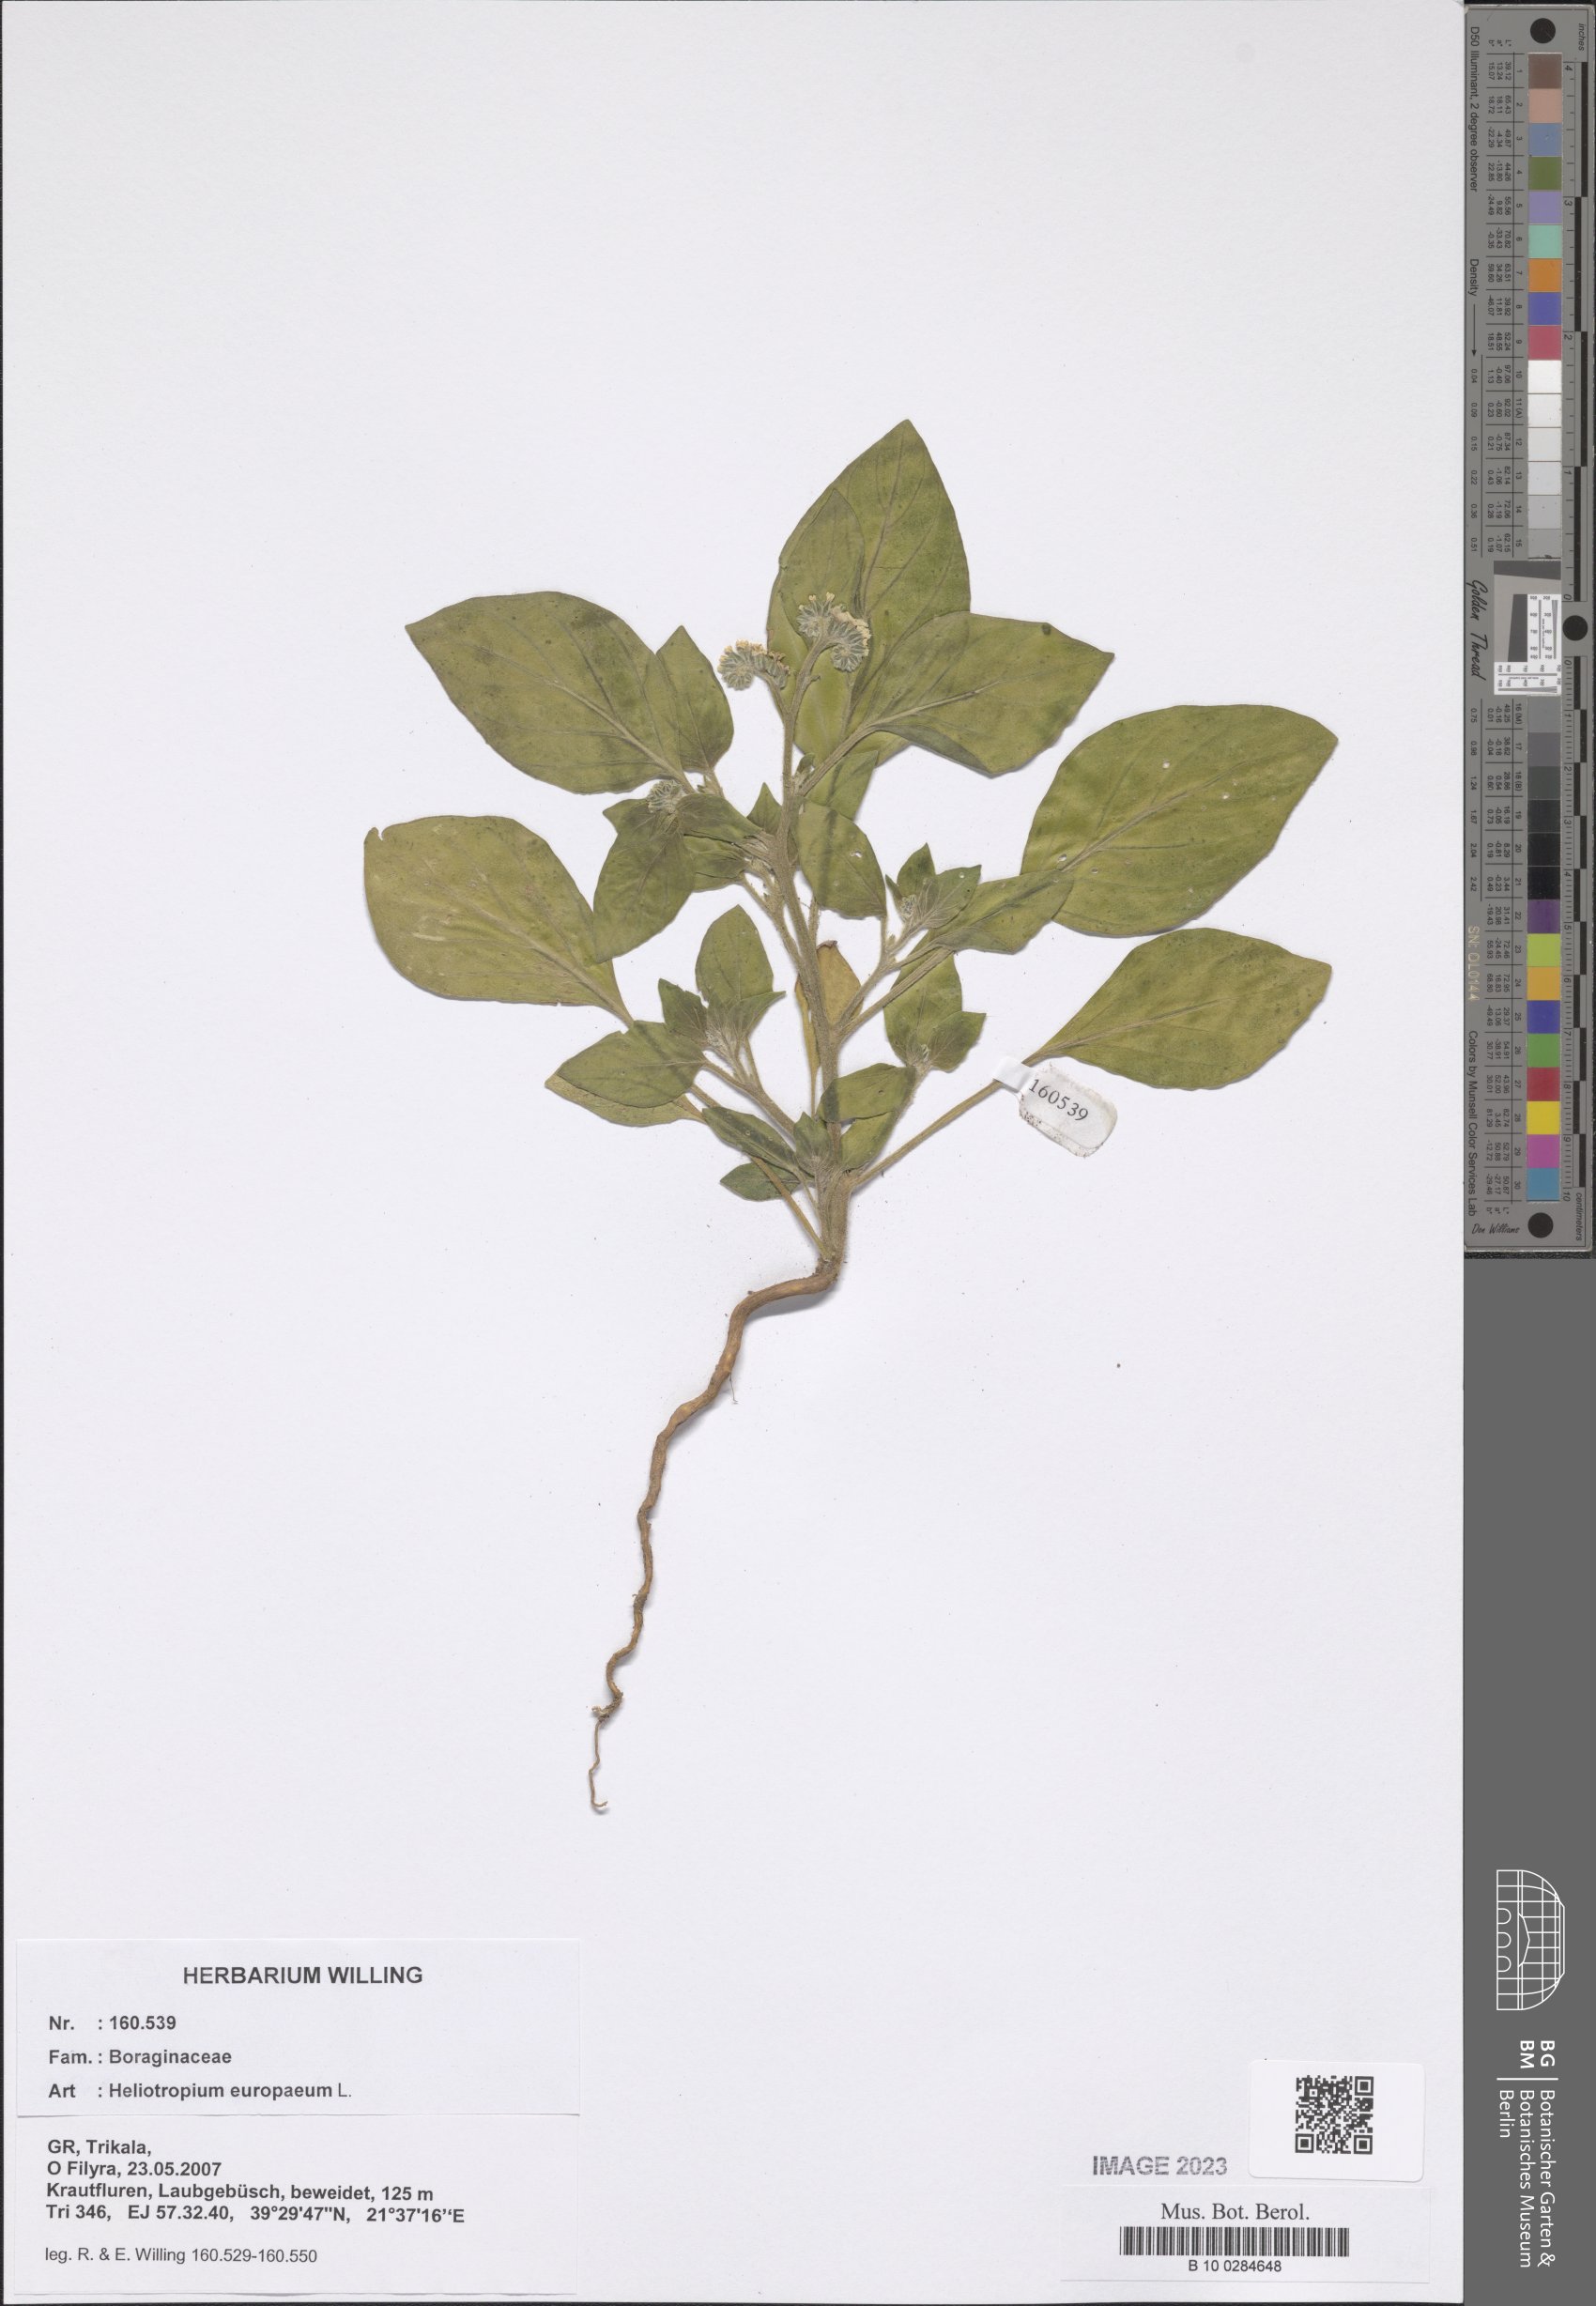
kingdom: Plantae
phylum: Tracheophyta
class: Magnoliopsida
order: Boraginales
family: Heliotropiaceae
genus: Heliotropium
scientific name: Heliotropium europaeum
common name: European heliotrope
